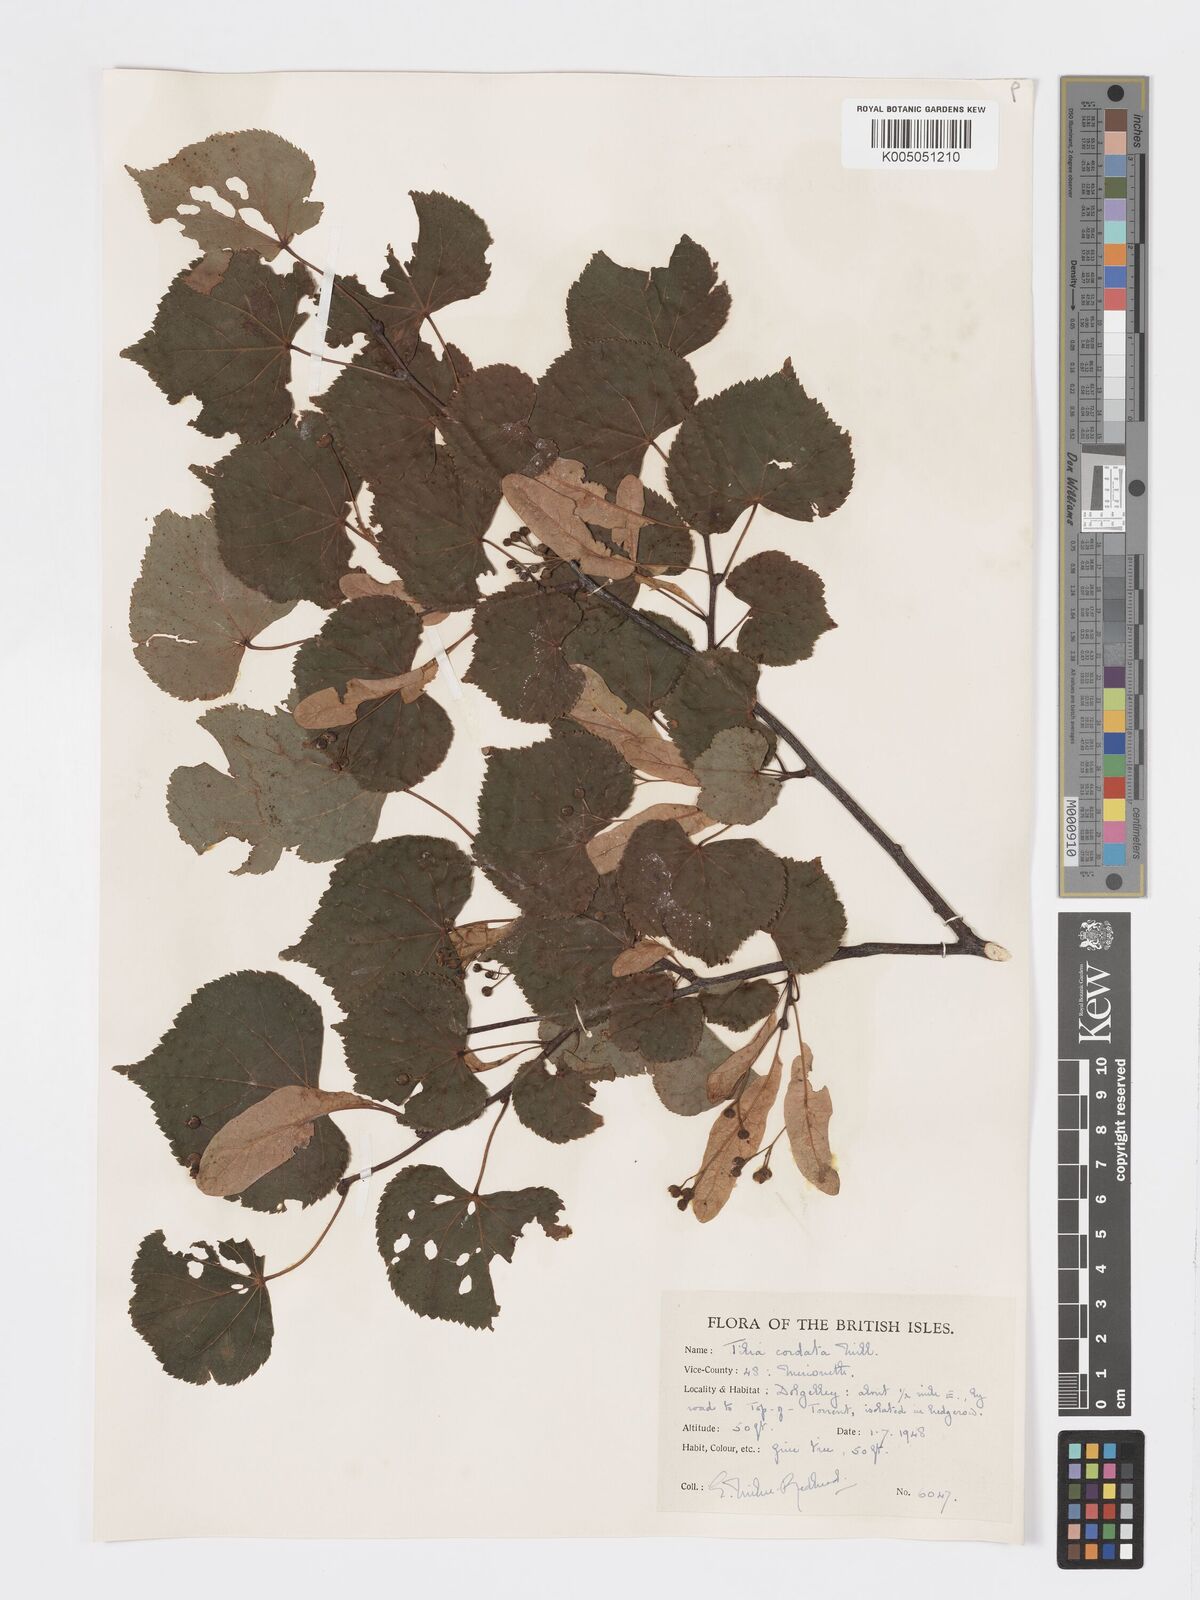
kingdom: Plantae
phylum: Tracheophyta
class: Magnoliopsida
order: Malvales
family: Malvaceae
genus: Tilia
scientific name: Tilia cordata
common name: Small-leaved lime
